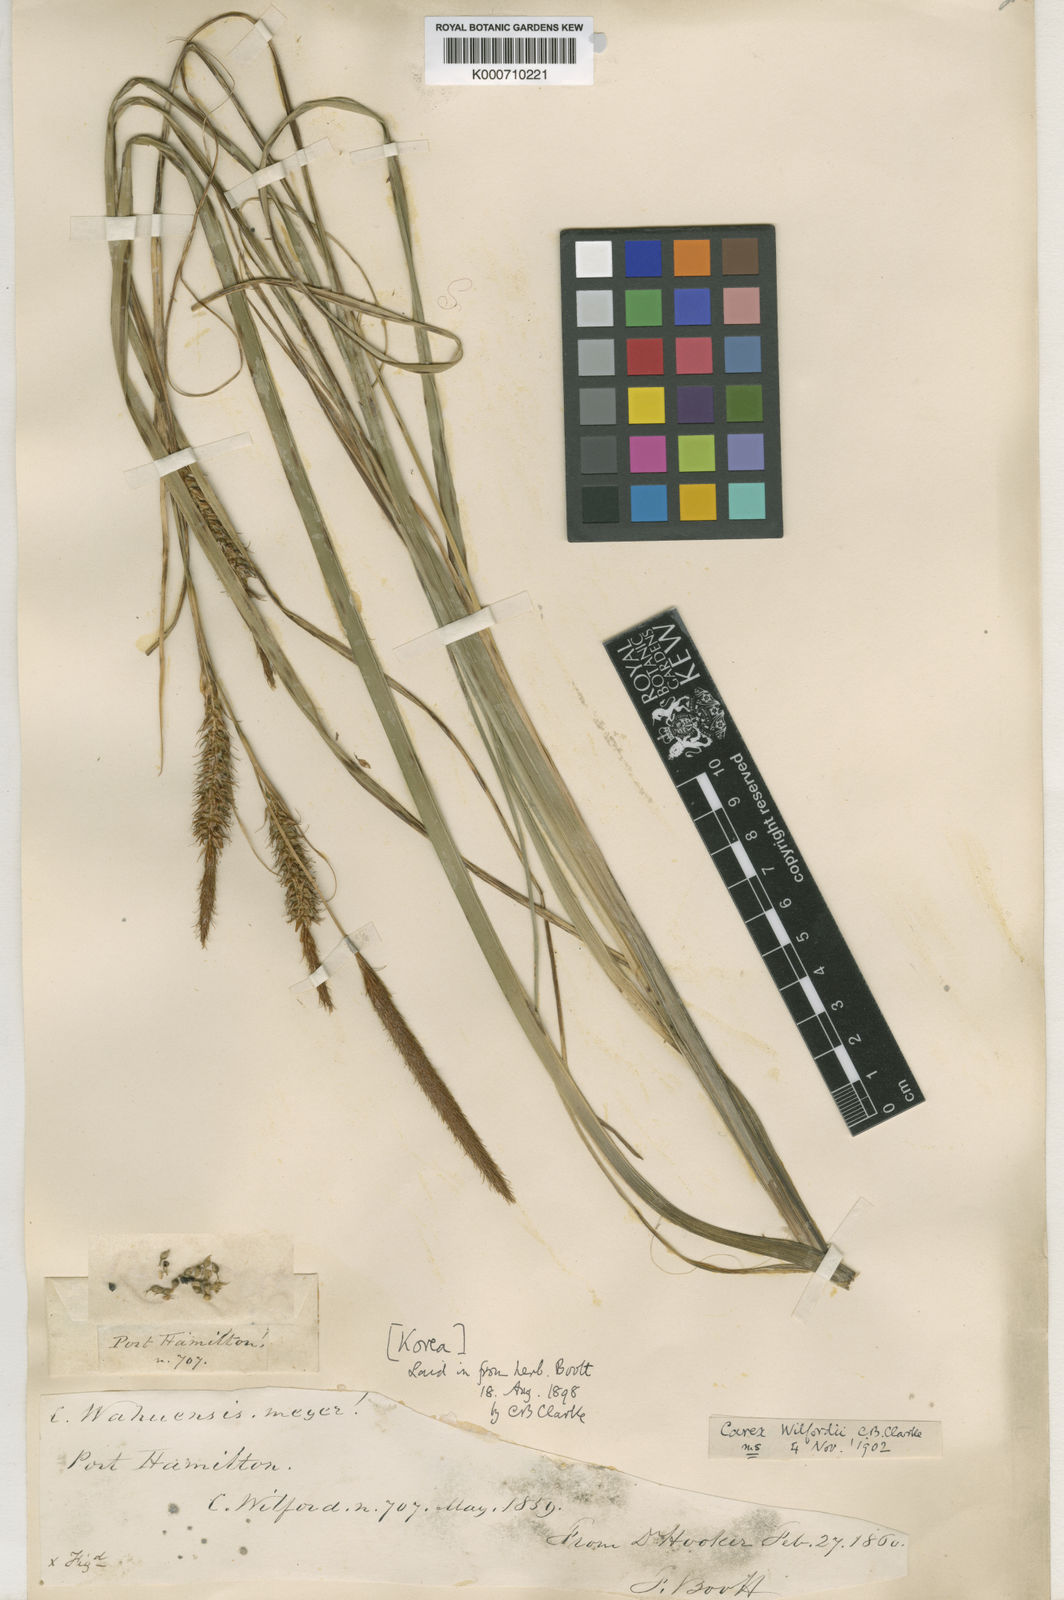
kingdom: Plantae
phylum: Tracheophyta
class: Liliopsida
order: Poales
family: Cyperaceae
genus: Carex
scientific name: Carex wahuensis
